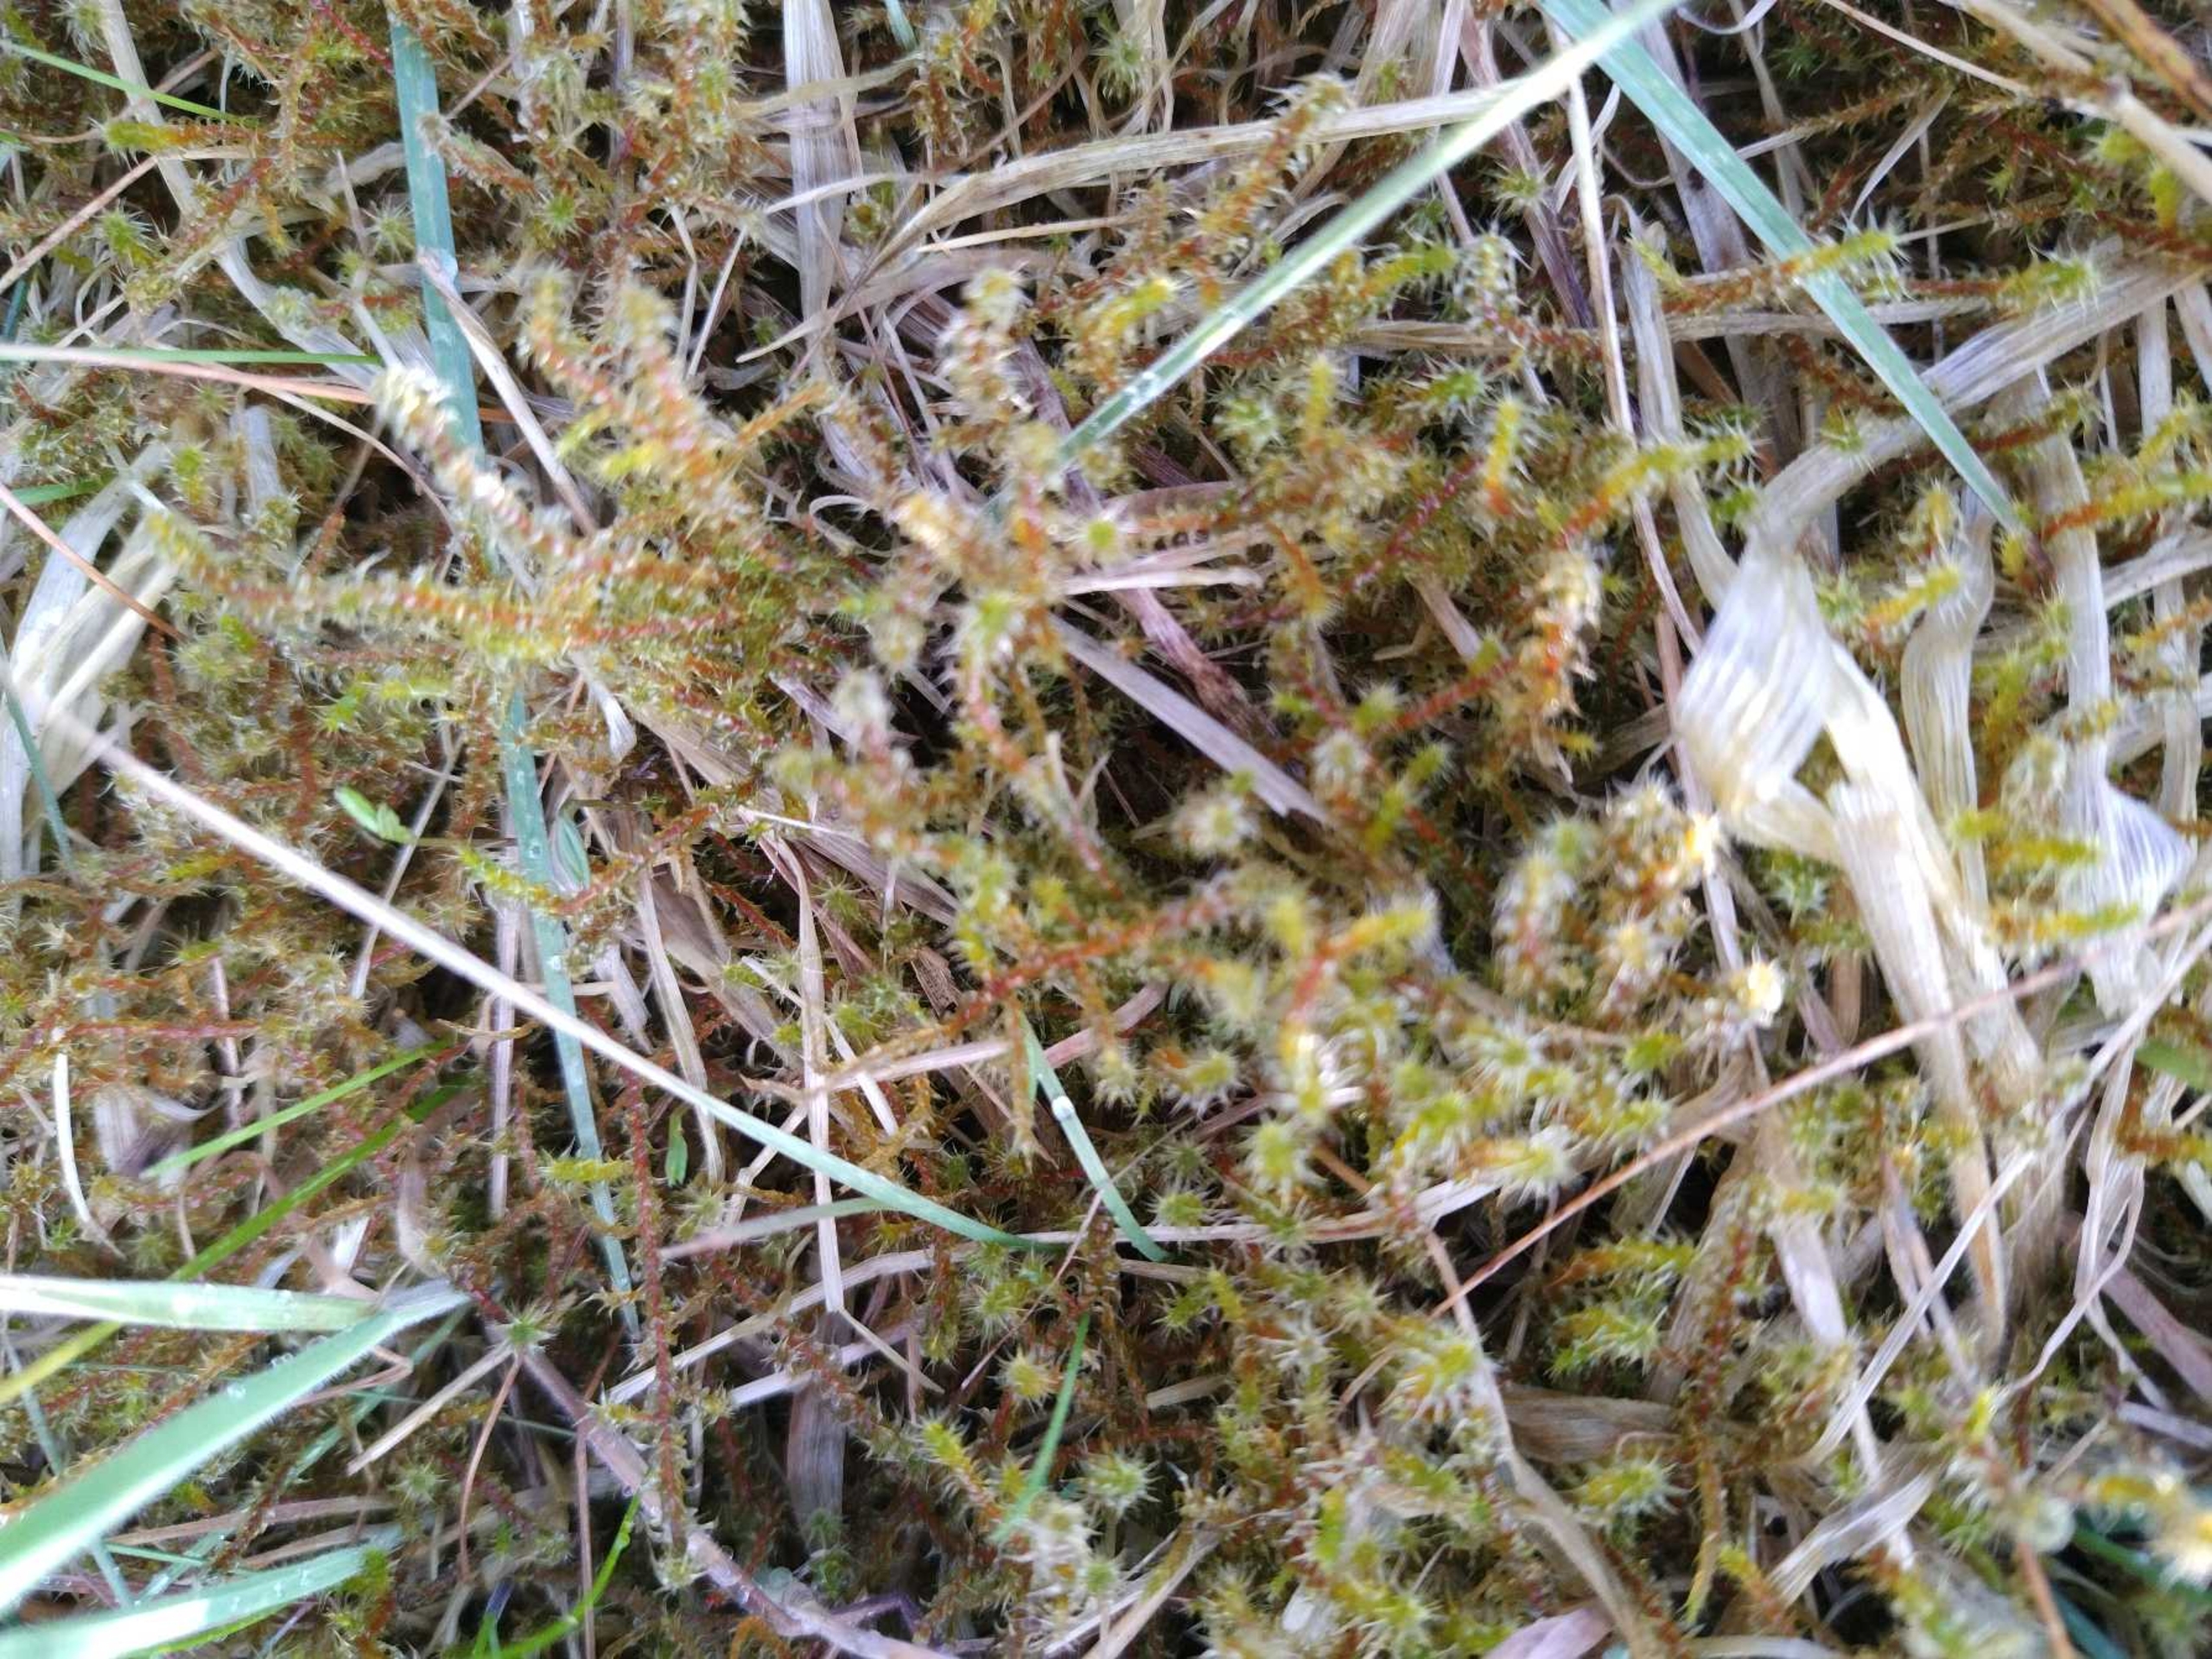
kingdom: Plantae
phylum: Bryophyta
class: Bryopsida
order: Hypnales
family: Hylocomiaceae
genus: Rhytidiadelphus
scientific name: Rhytidiadelphus squarrosus
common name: Plæne-kransemos
